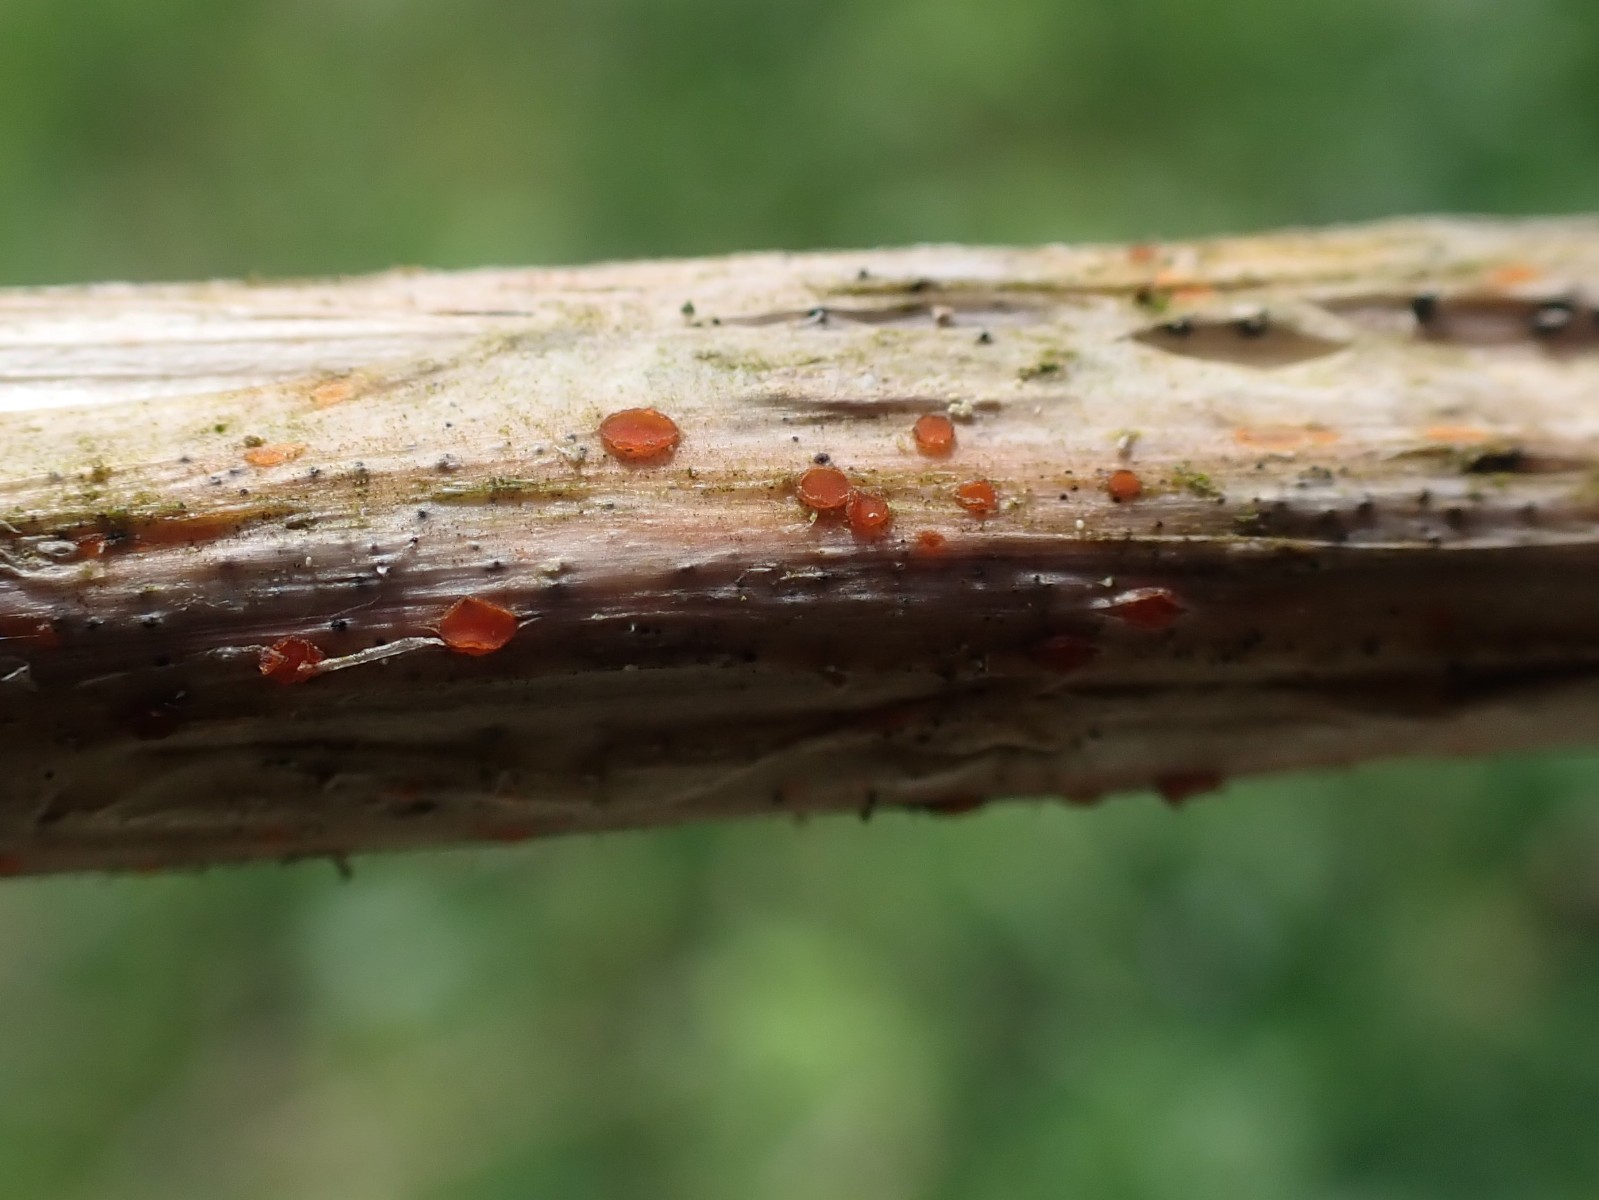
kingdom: Fungi
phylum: Ascomycota
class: Leotiomycetes
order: Helotiales
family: Calloriaceae
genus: Calloria
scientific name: Calloria urticae
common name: nælde-orangeskive
